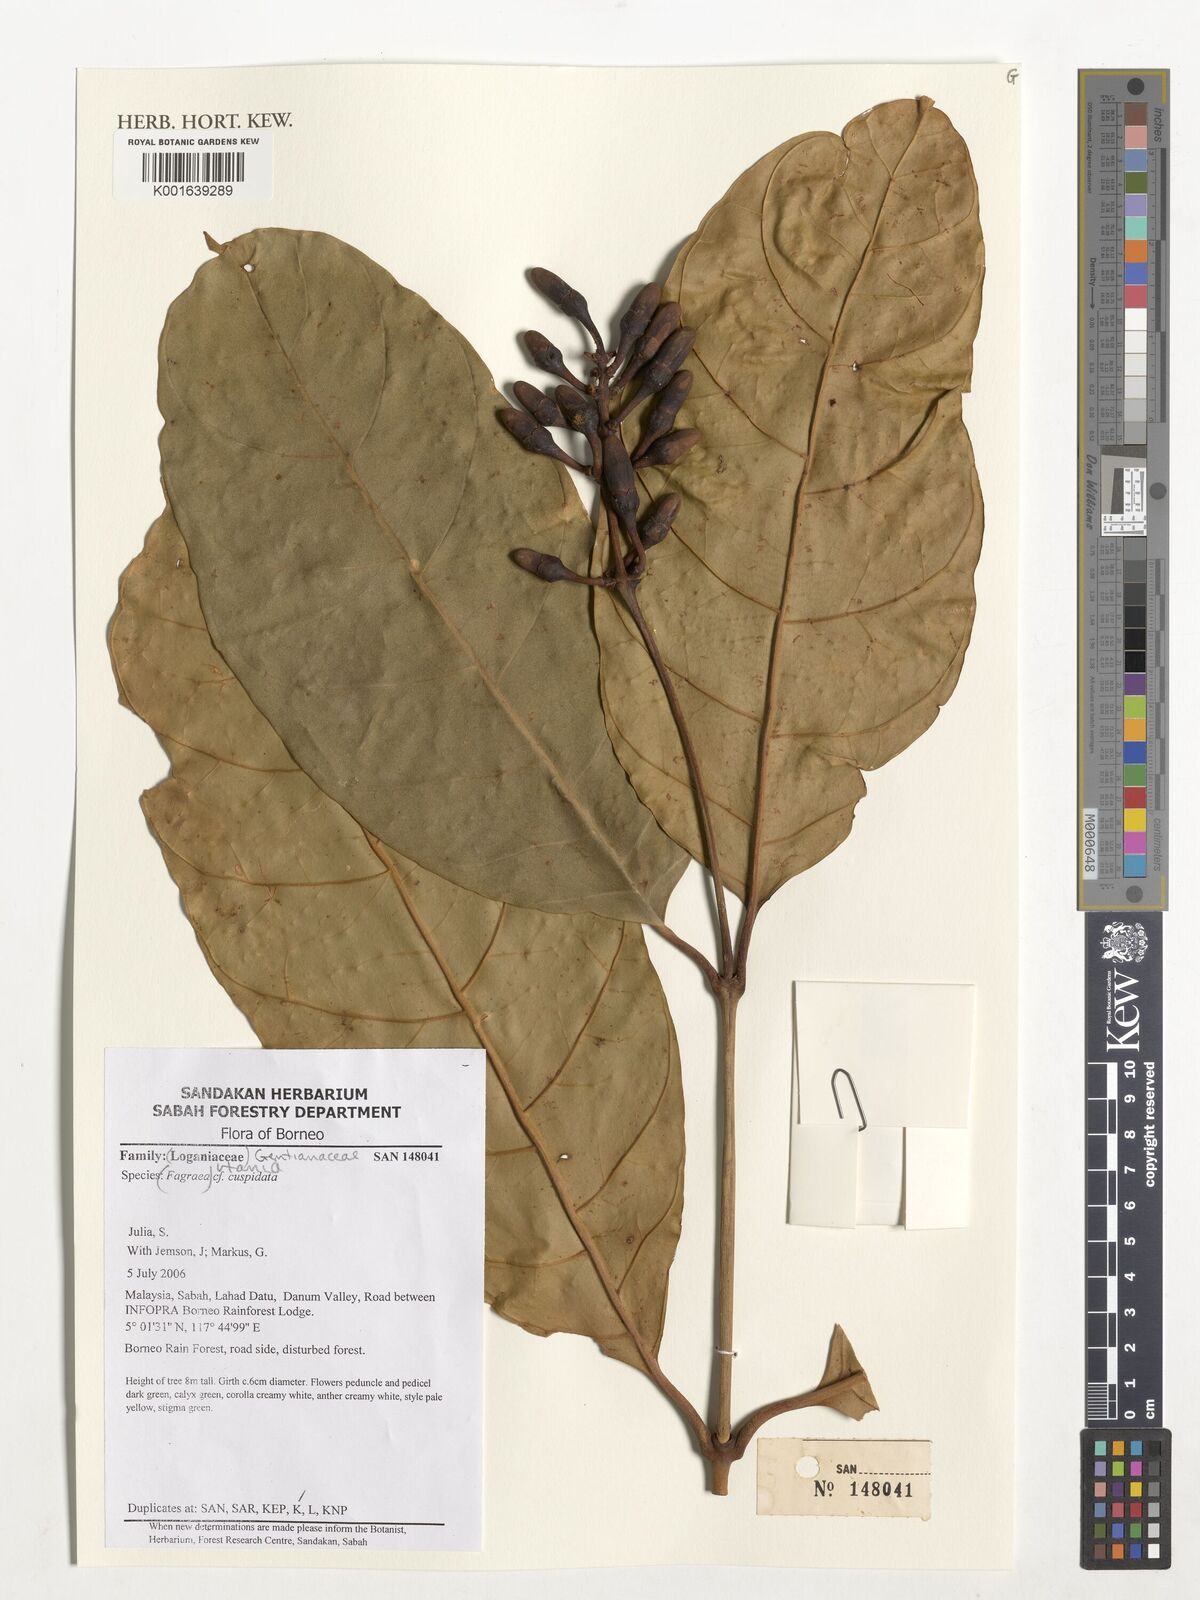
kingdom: Plantae
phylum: Tracheophyta
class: Magnoliopsida
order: Gentianales
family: Gentianaceae
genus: Utania
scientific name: Utania cuspidata
